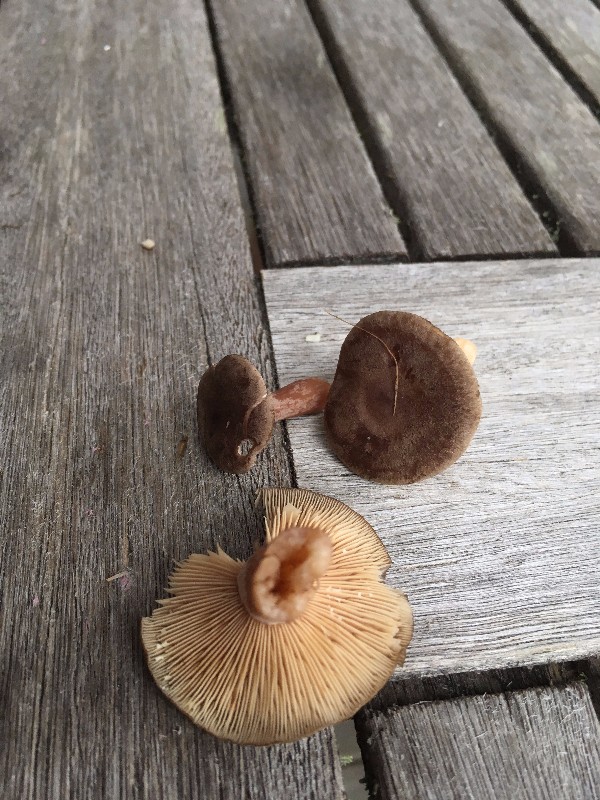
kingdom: Fungi
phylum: Basidiomycota
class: Agaricomycetes
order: Russulales
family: Russulaceae
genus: Lactarius
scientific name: Lactarius mammosus
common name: kokosbrun mælkehat
